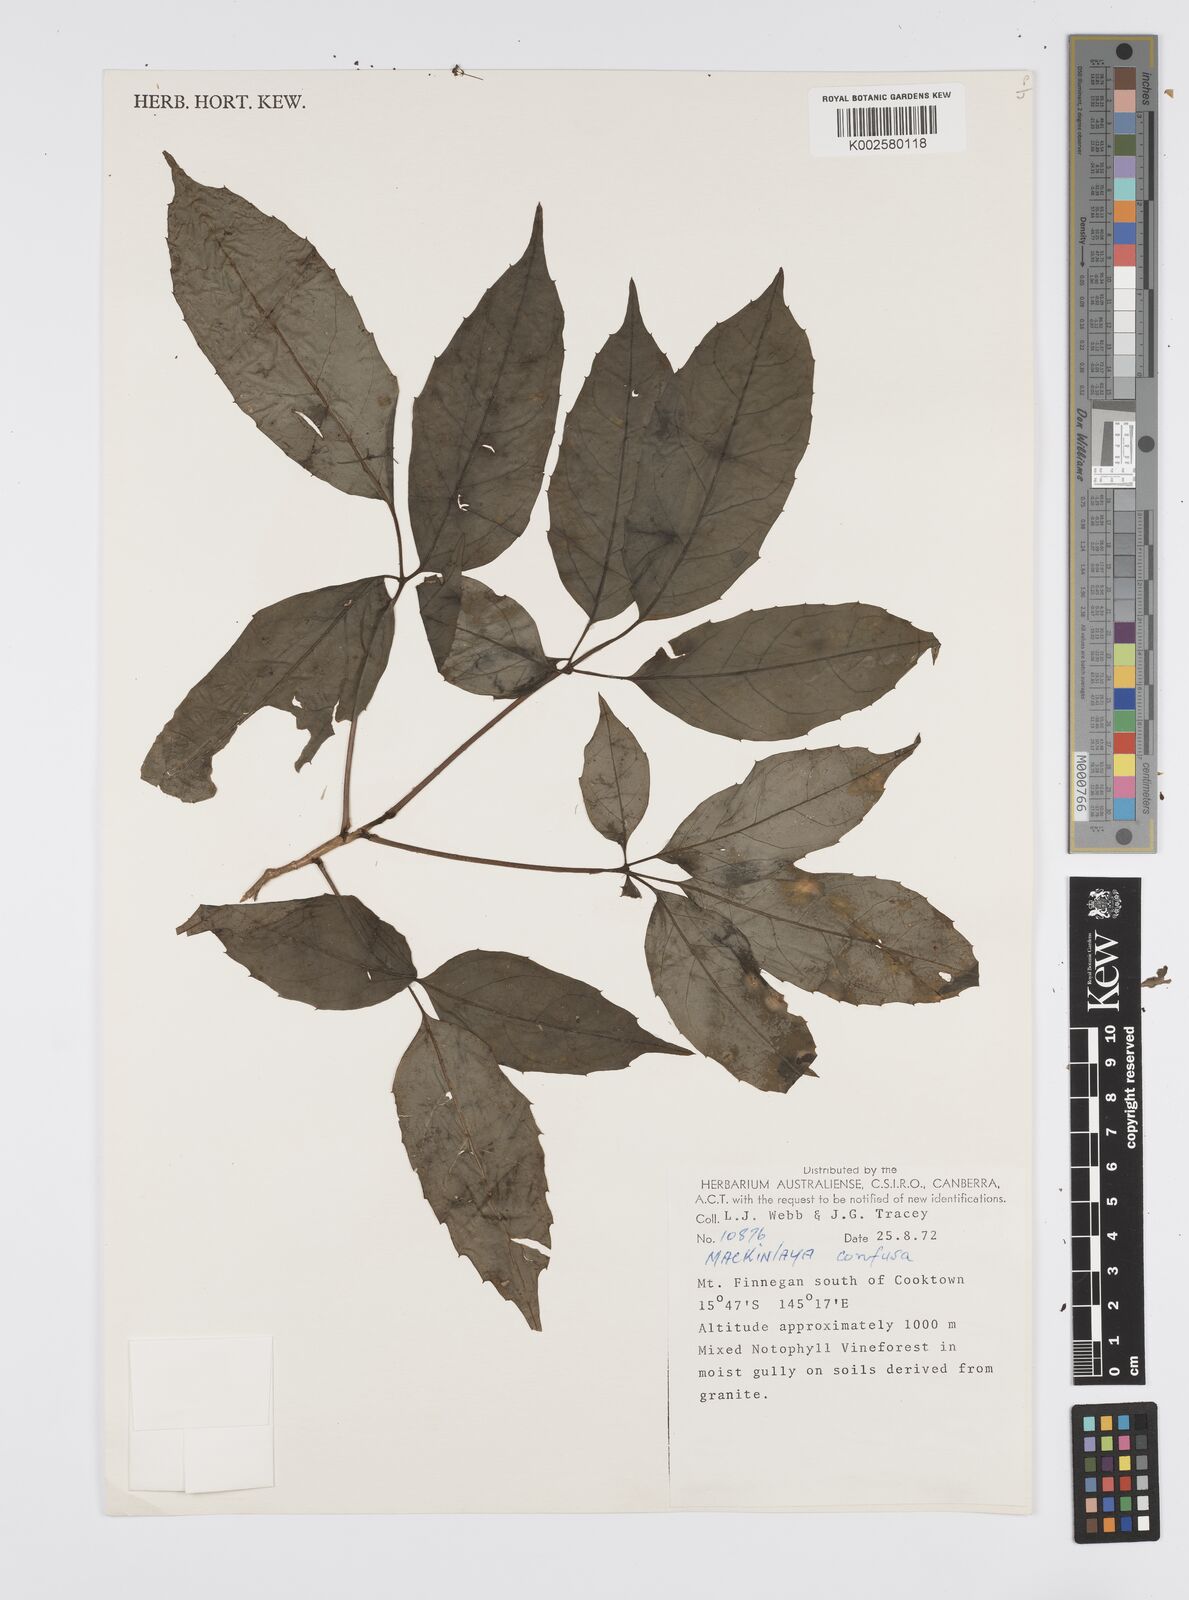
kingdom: Plantae
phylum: Tracheophyta
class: Magnoliopsida
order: Apiales
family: Apiaceae
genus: Mackinlaya
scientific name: Mackinlaya confusa
